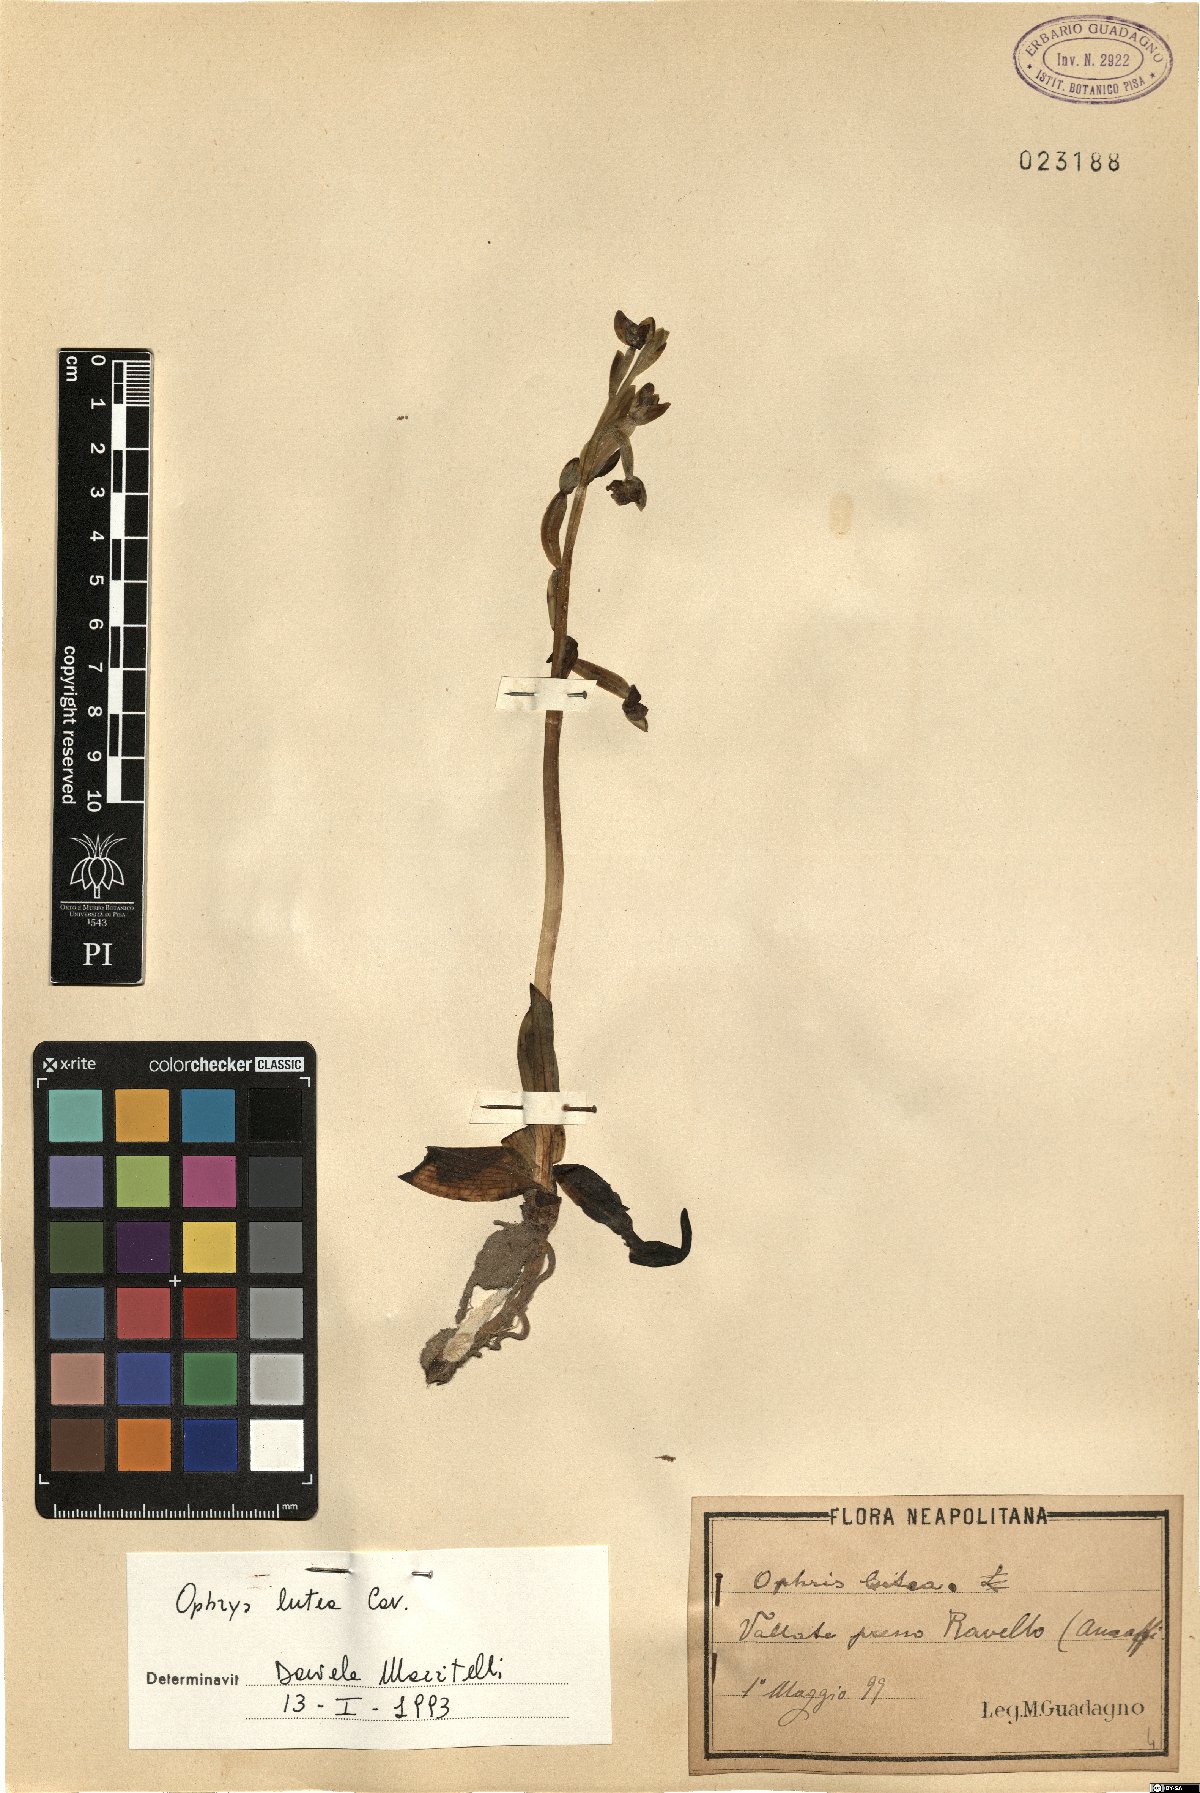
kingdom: Plantae
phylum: Tracheophyta
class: Liliopsida
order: Asparagales
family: Orchidaceae
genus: Ophrys
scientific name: Ophrys lutea
